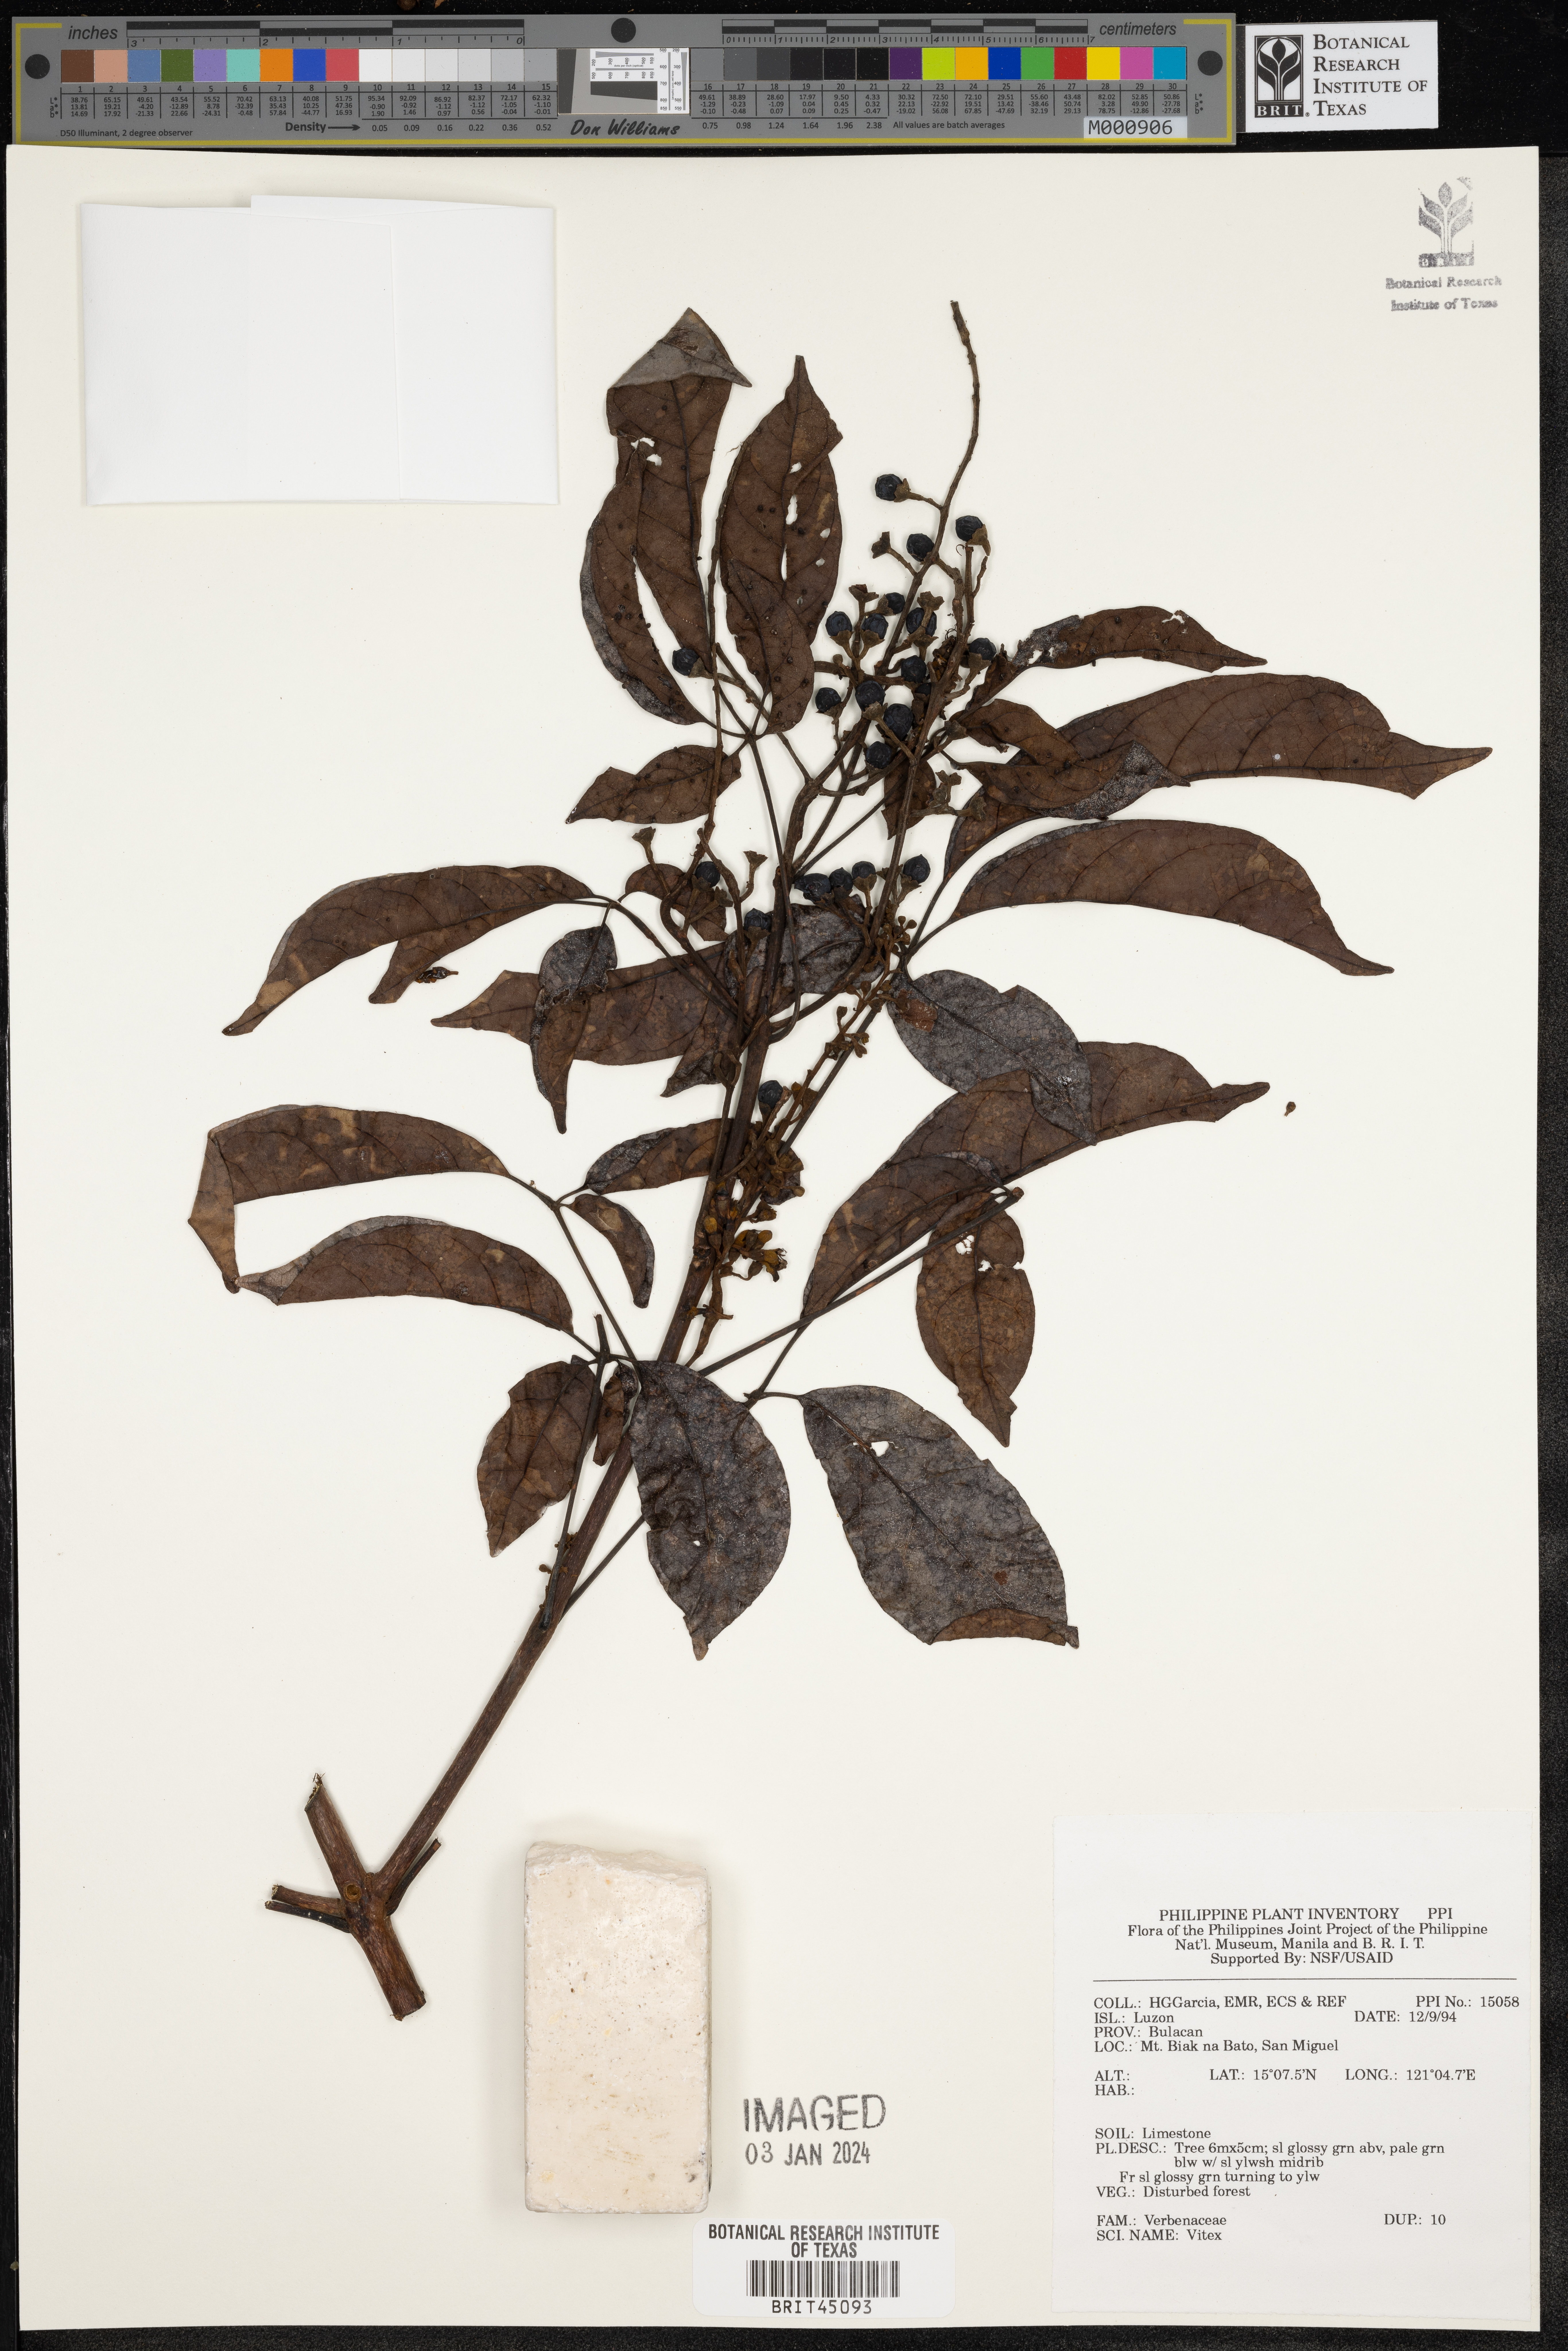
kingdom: Plantae
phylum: Tracheophyta
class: Magnoliopsida
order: Lamiales
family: Lamiaceae
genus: Vitex
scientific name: Vitex
